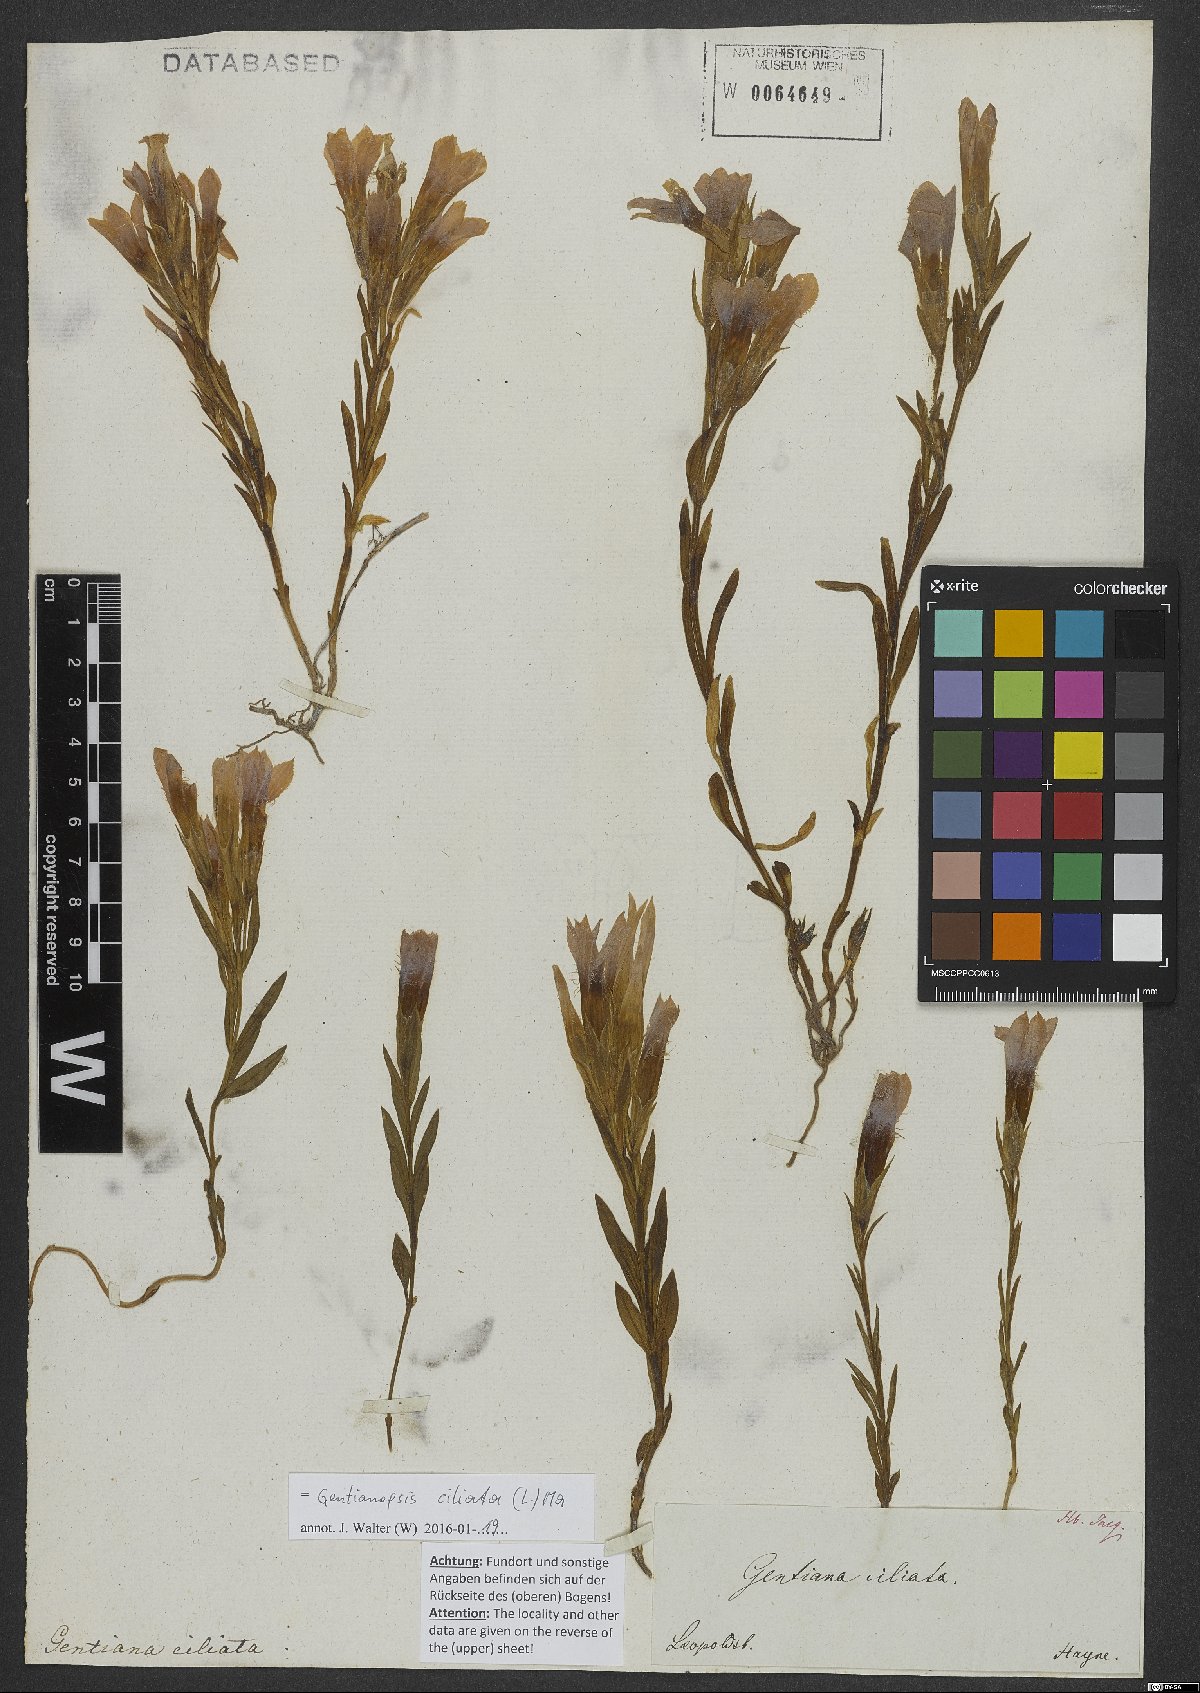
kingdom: Plantae
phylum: Tracheophyta
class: Magnoliopsida
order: Gentianales
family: Gentianaceae
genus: Gentianopsis
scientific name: Gentianopsis ciliata
